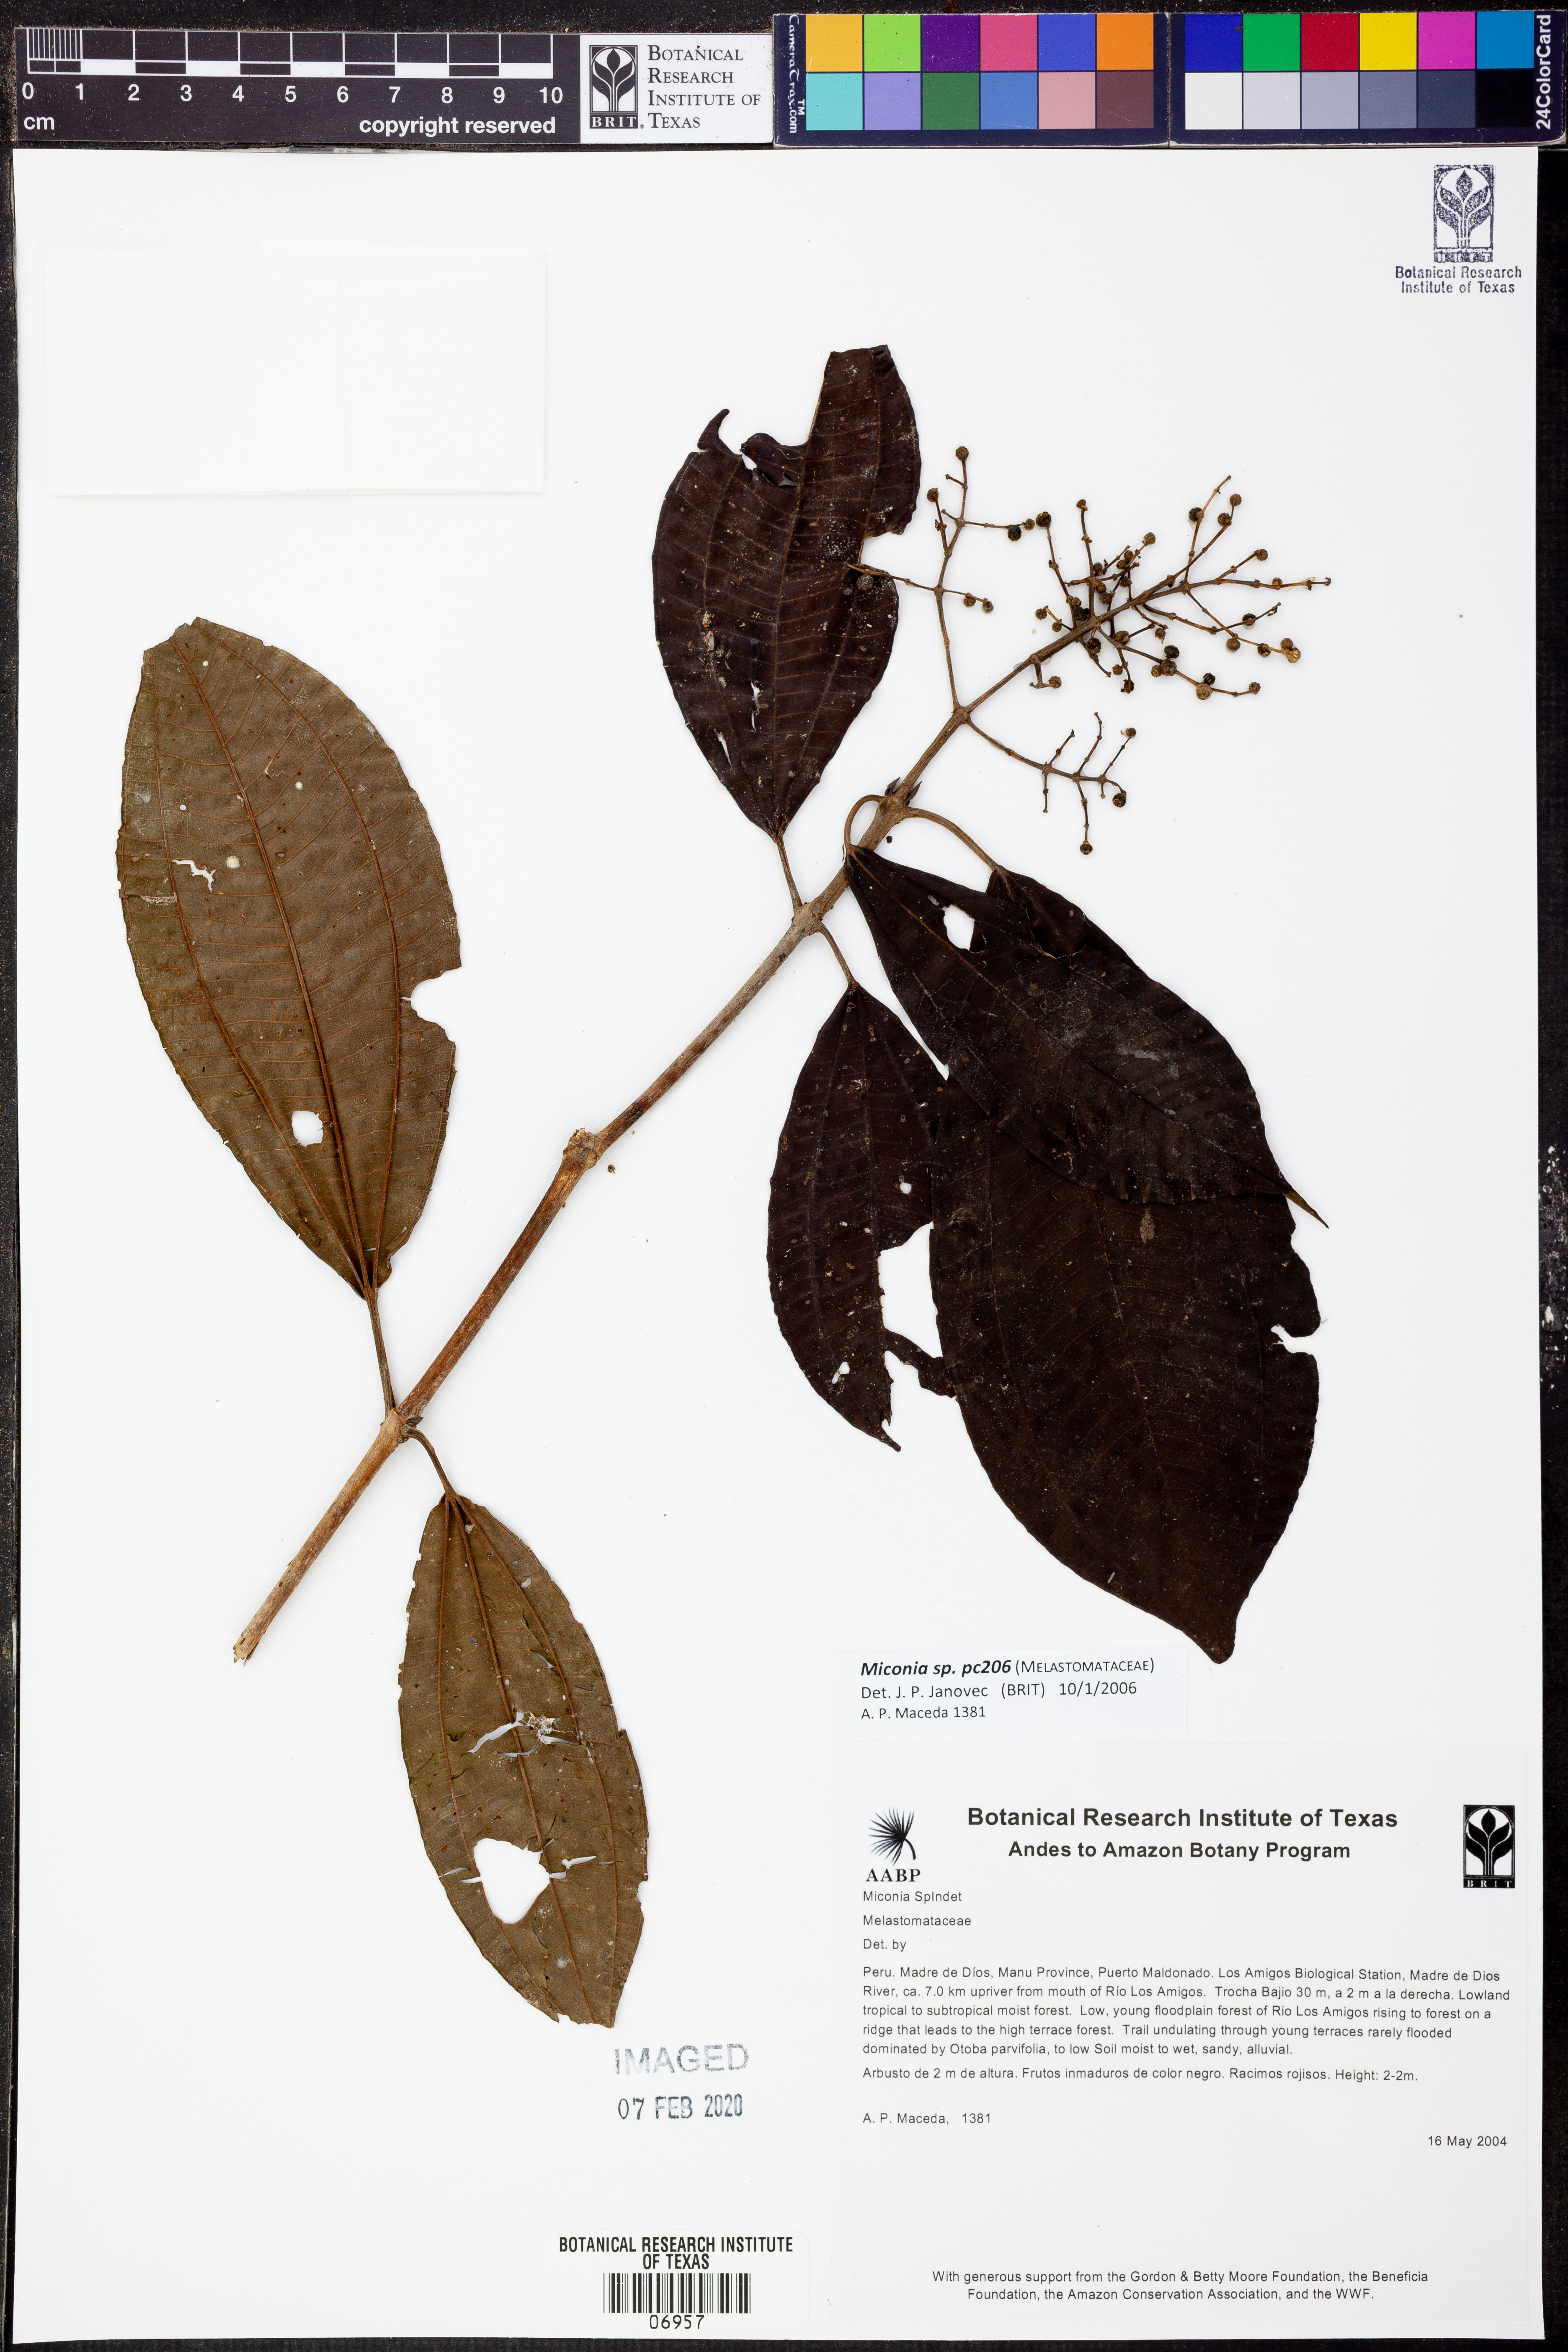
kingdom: Plantae
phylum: Tracheophyta
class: Magnoliopsida
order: Myrtales
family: Melastomataceae
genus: Miconia
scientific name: Miconia
